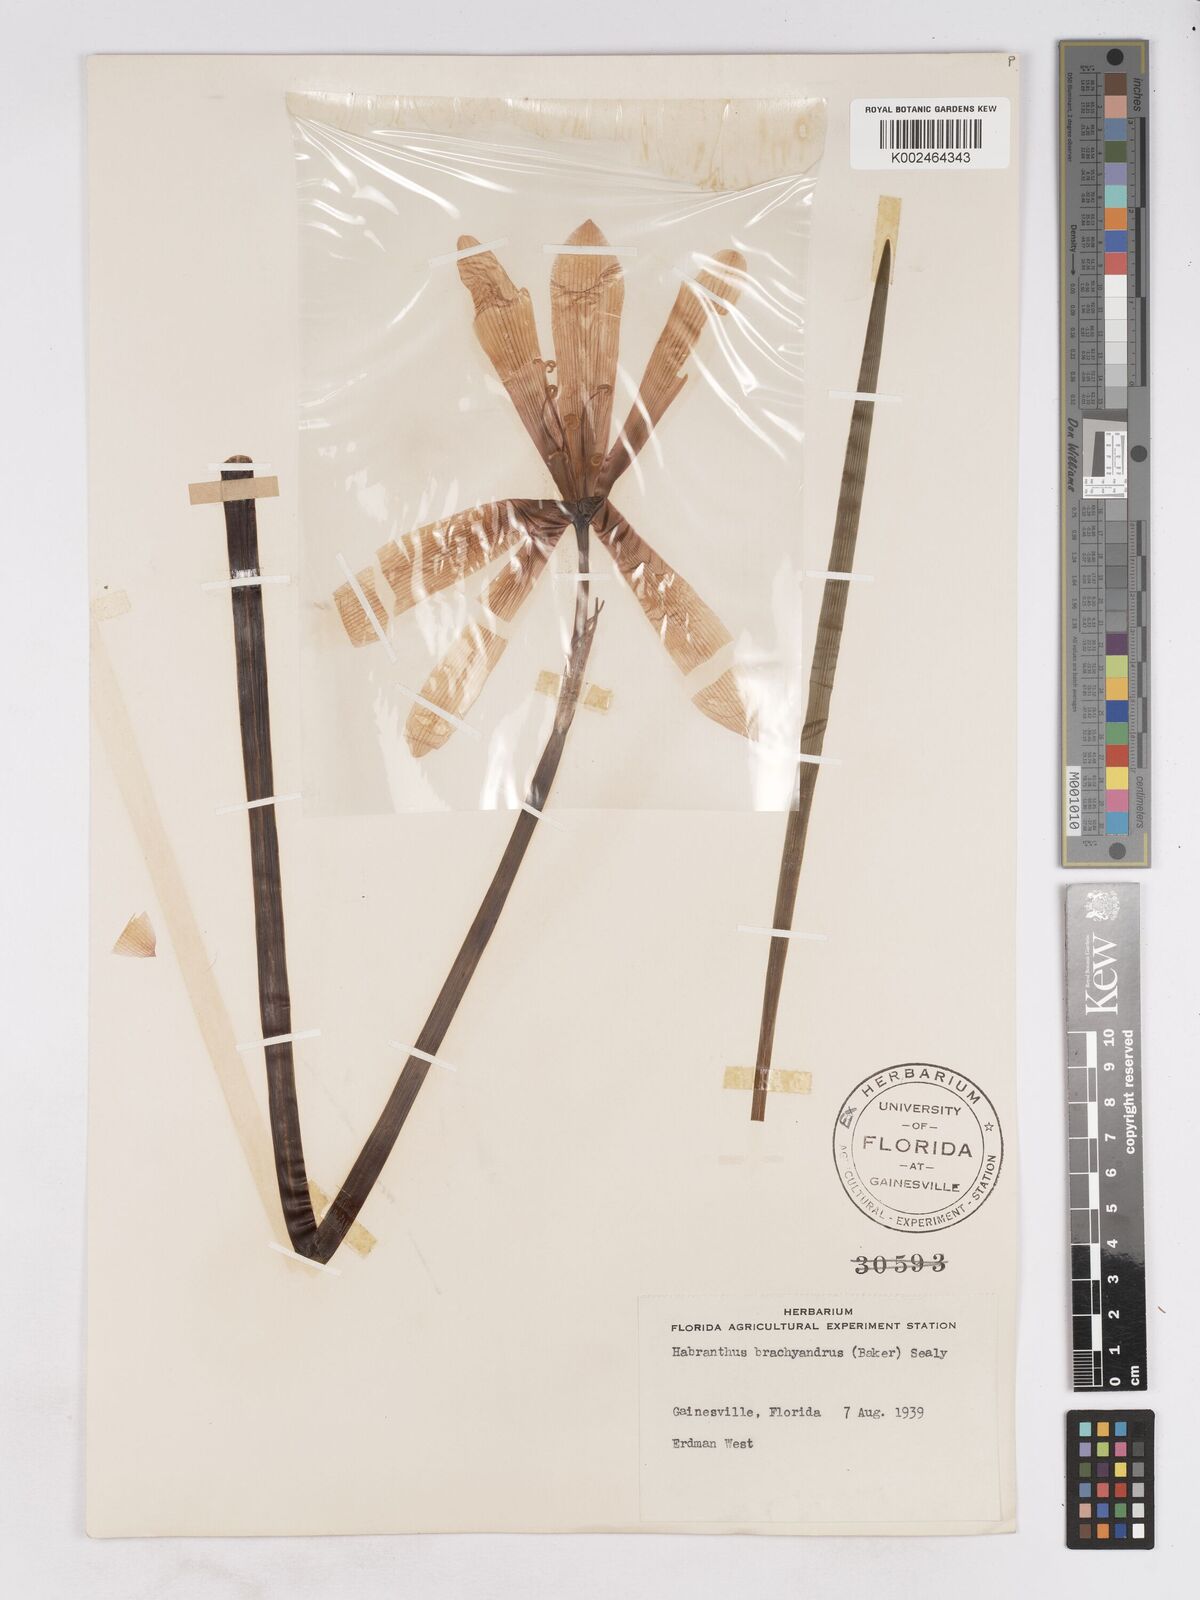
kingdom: Plantae
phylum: Tracheophyta
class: Liliopsida
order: Asparagales
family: Amaryllidaceae
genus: Zephyranthes
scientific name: Zephyranthes robusta
